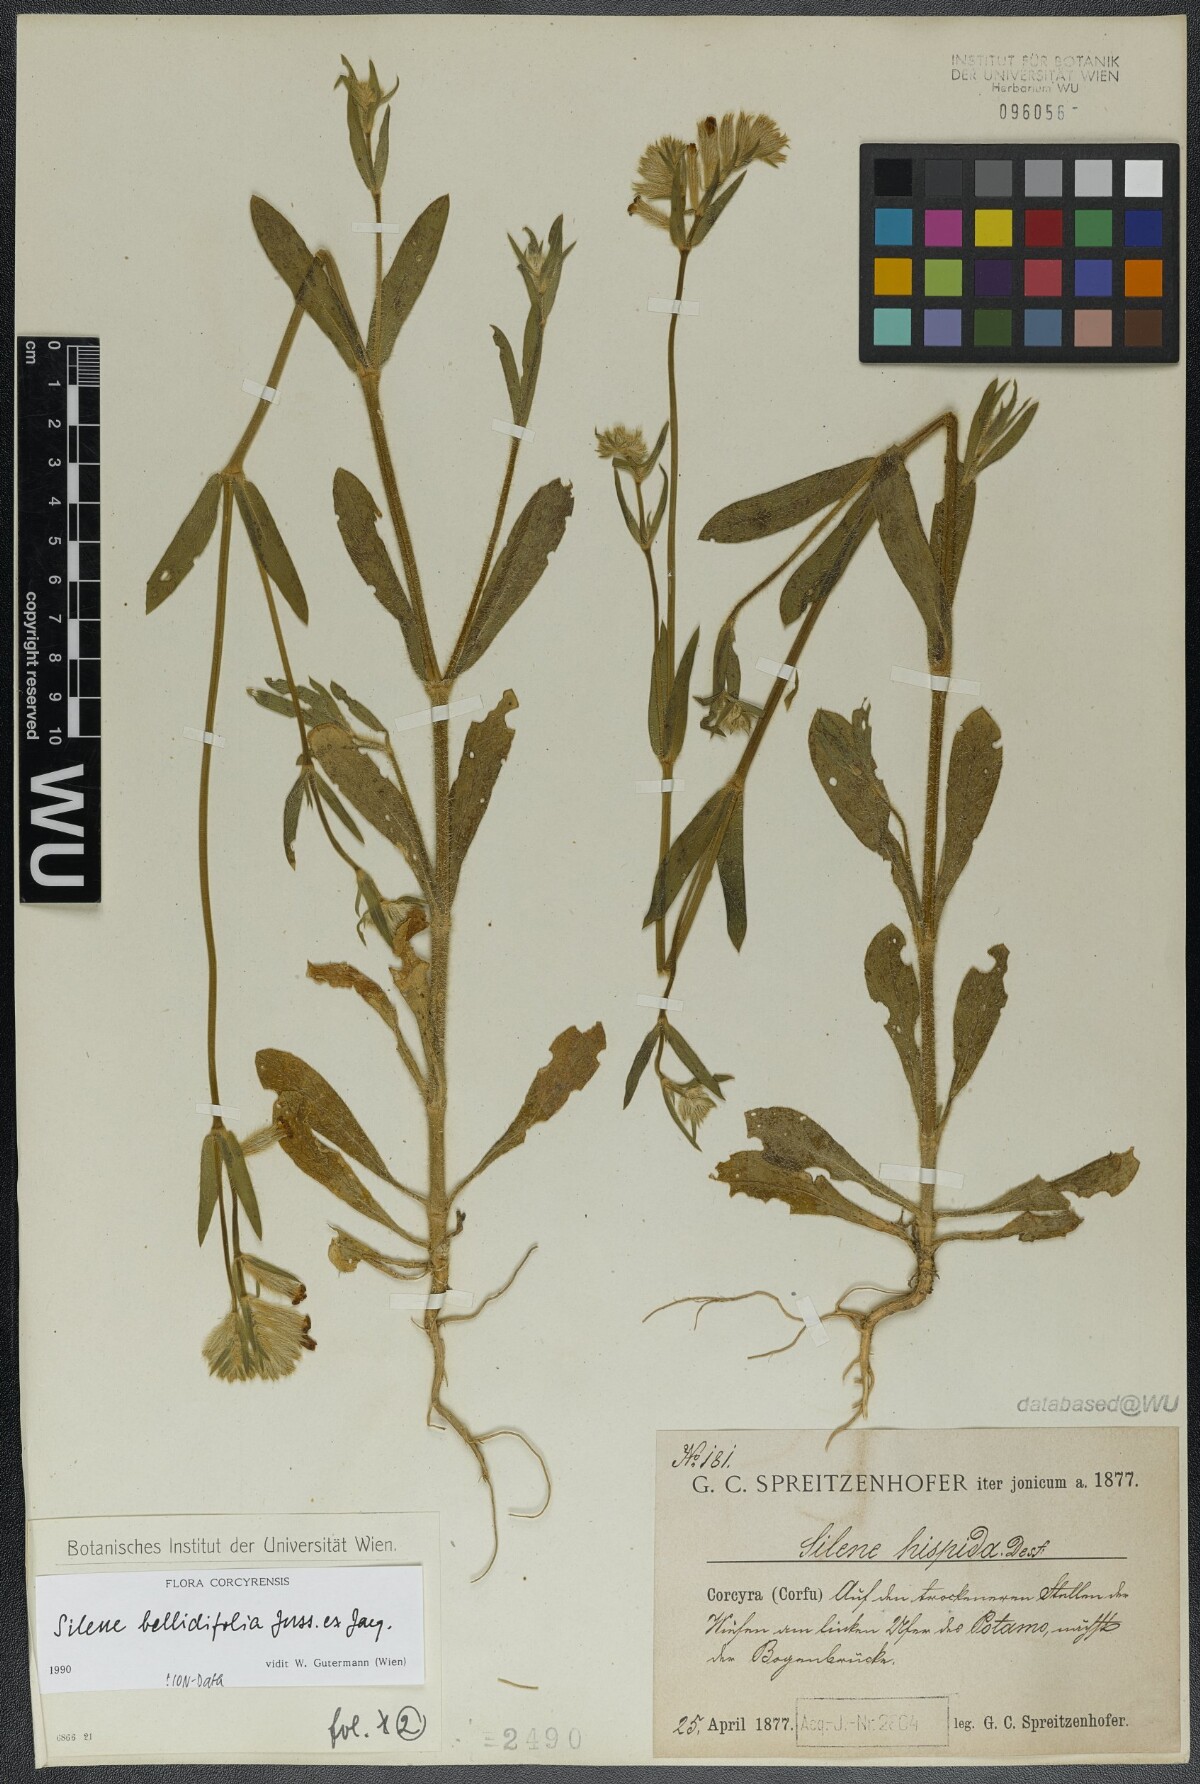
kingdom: Plantae
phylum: Tracheophyta
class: Magnoliopsida
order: Caryophyllales
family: Caryophyllaceae
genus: Silene
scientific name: Silene bellidifolia
